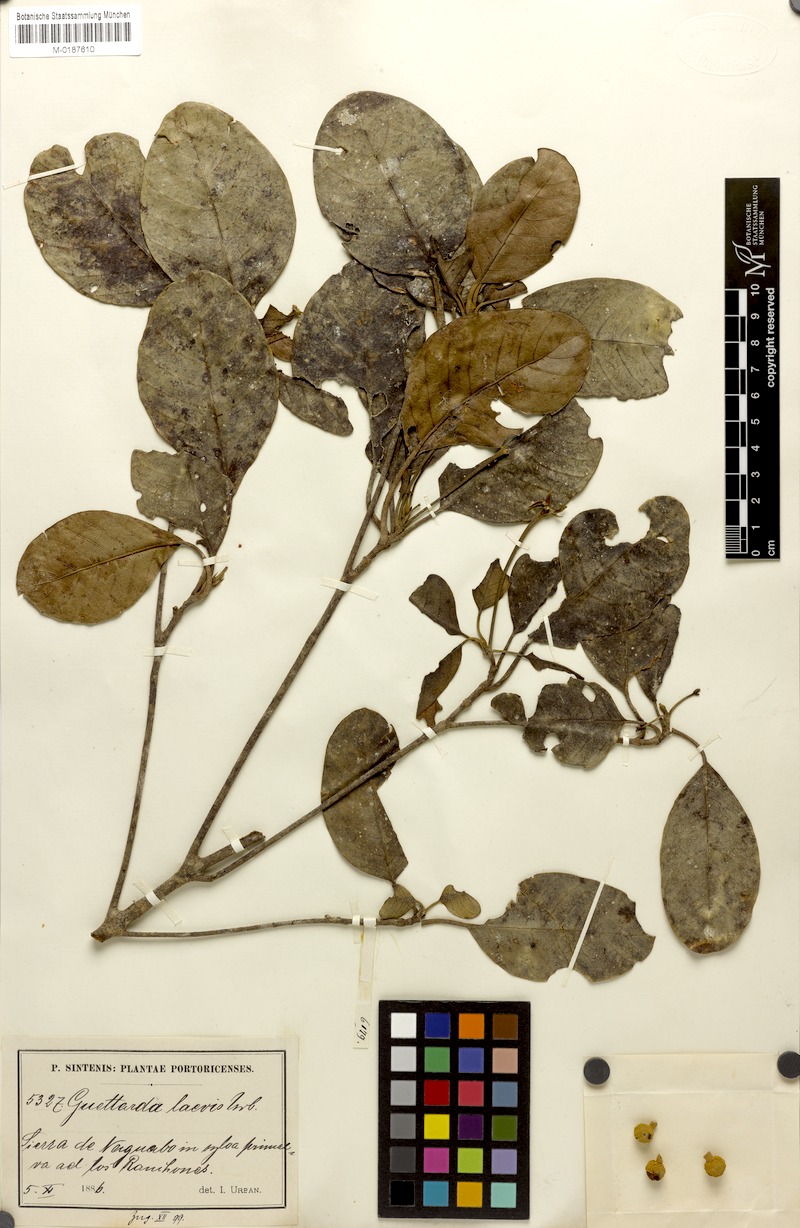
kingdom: Plantae
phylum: Tracheophyta
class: Magnoliopsida
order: Gentianales
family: Rubiaceae
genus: Guettarda
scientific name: Guettarda valenzuelana
